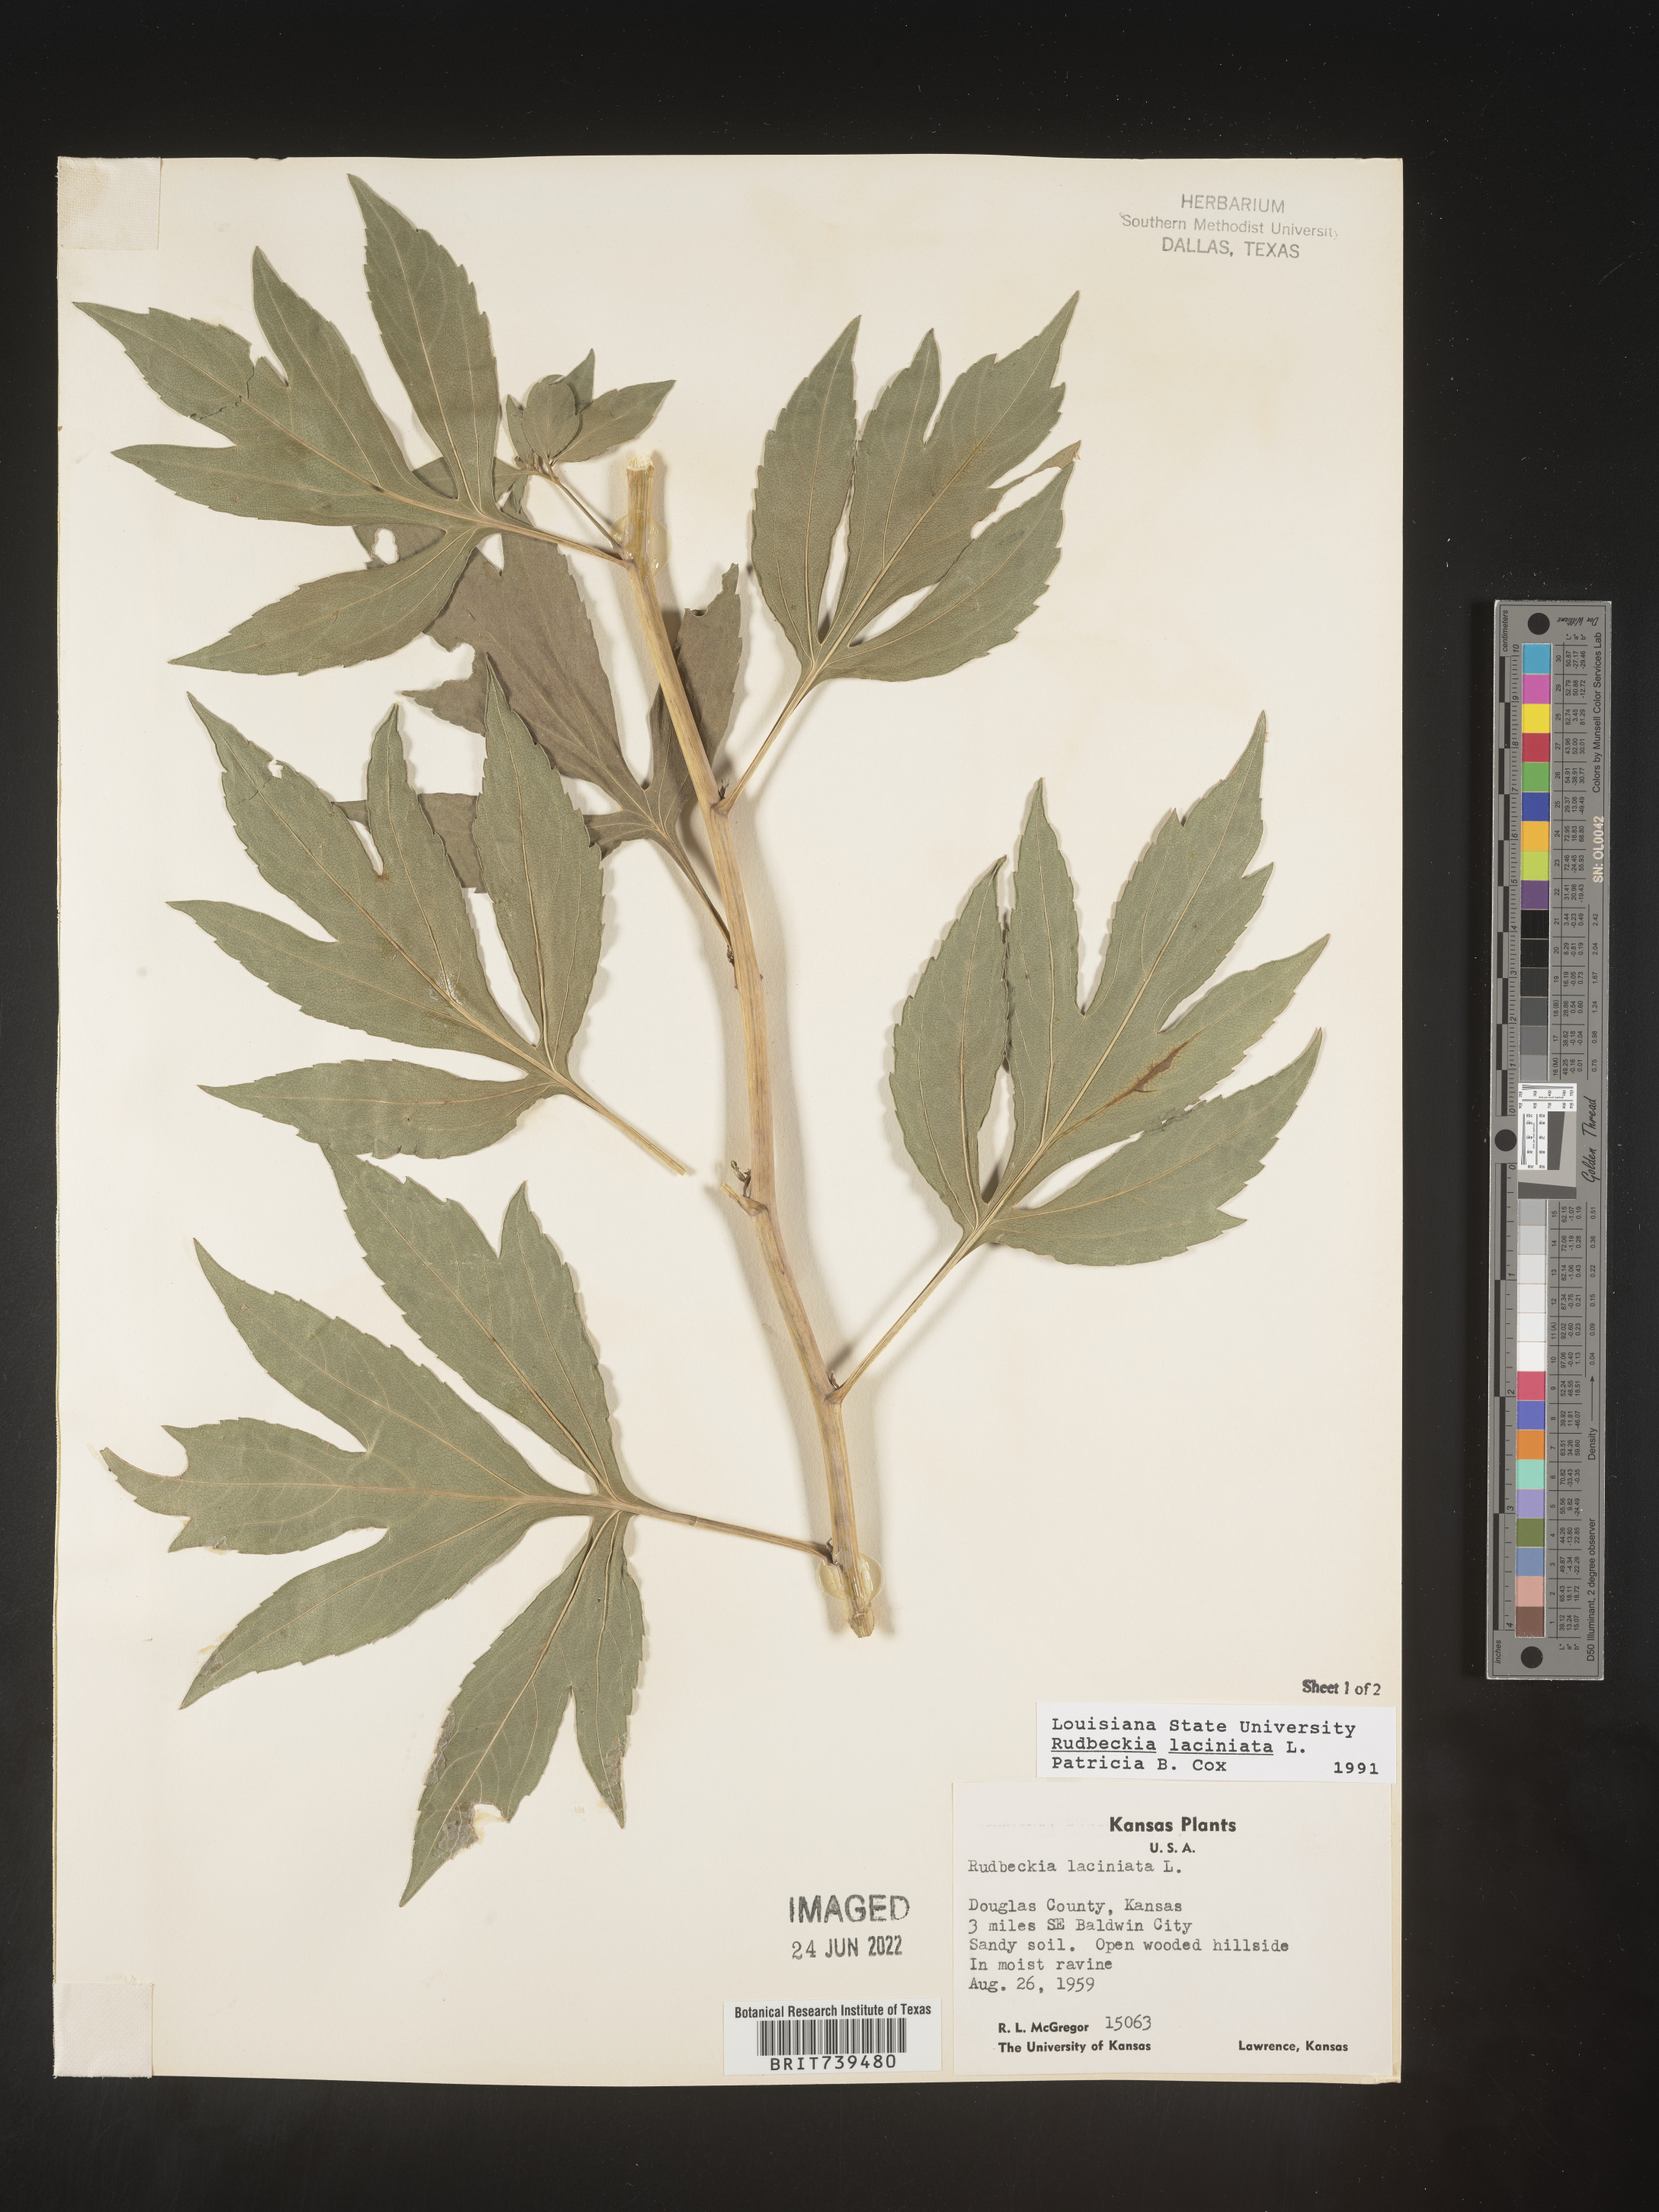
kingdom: Plantae
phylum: Tracheophyta
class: Magnoliopsida
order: Asterales
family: Asteraceae
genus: Rudbeckia
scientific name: Rudbeckia laciniata
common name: Coneflower
